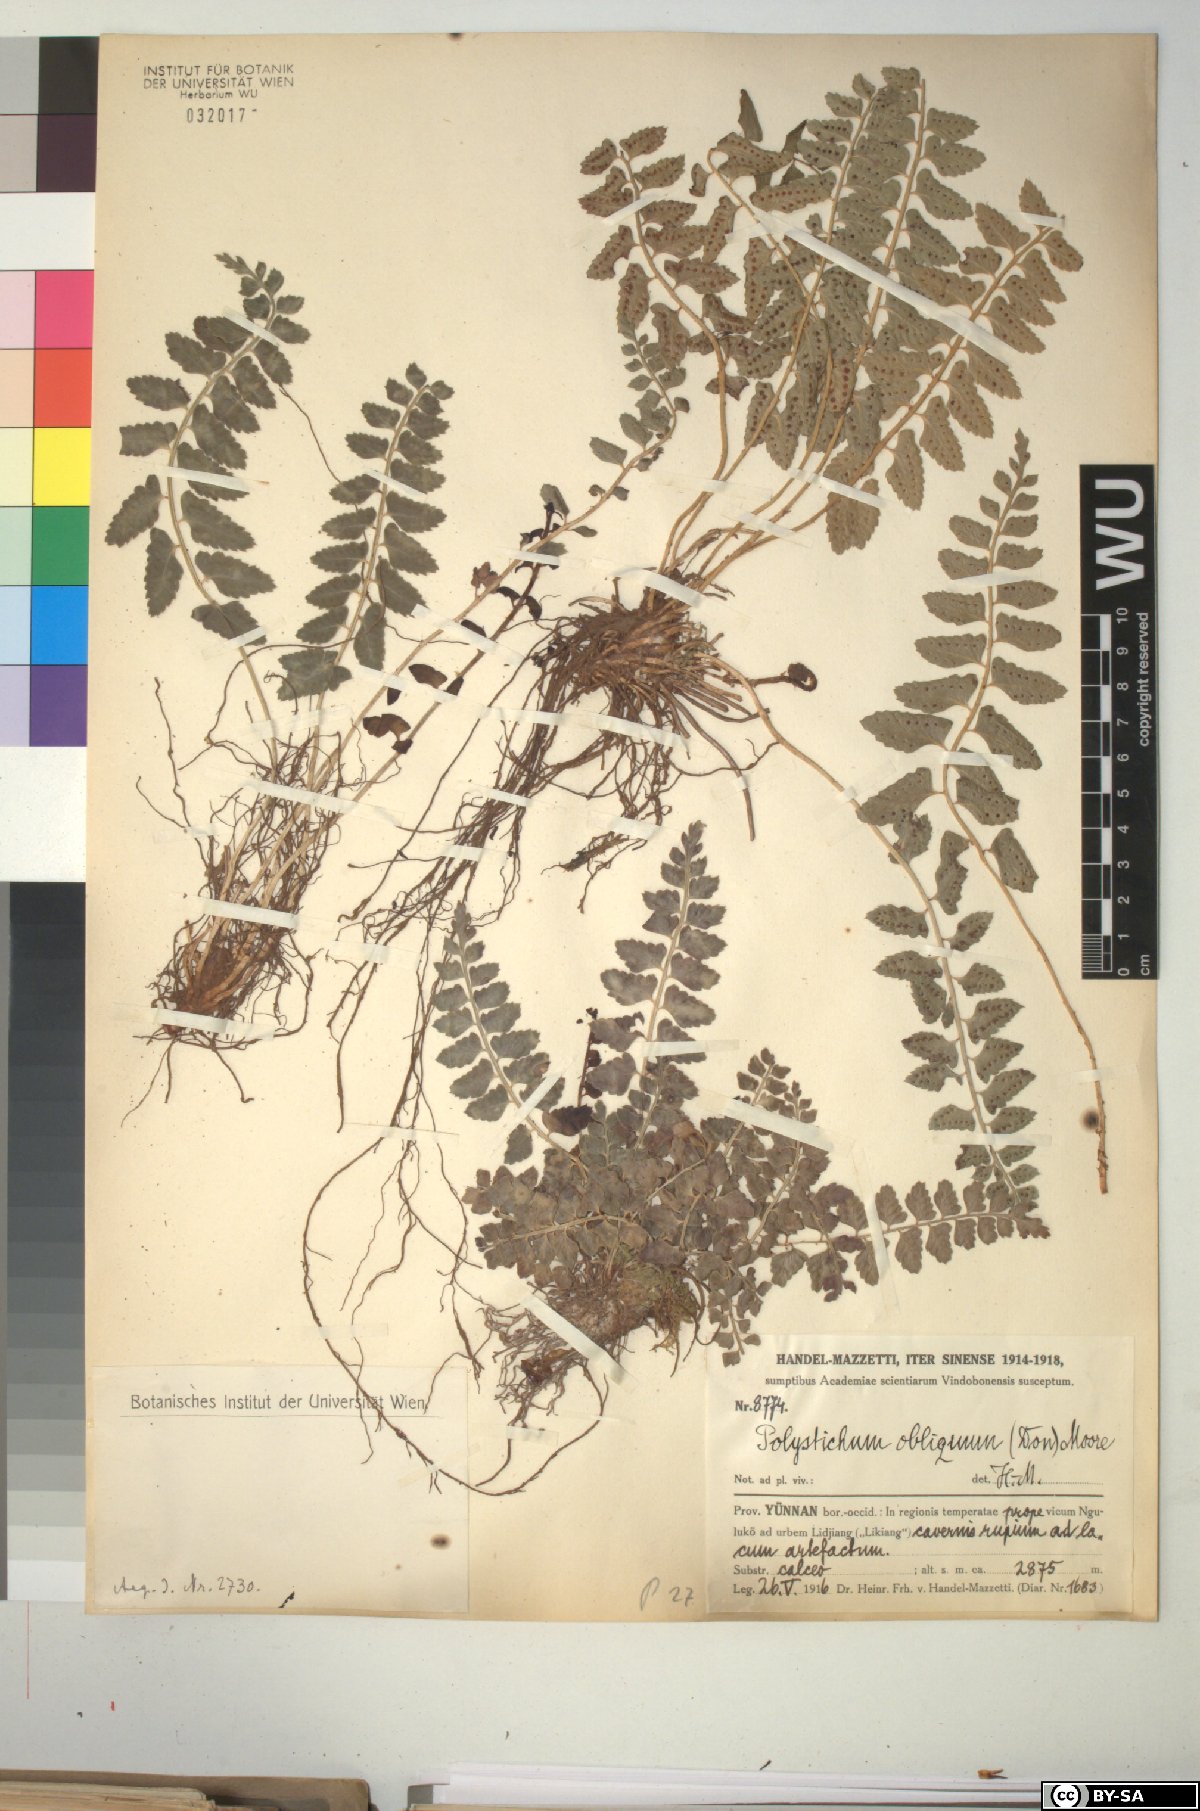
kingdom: Plantae
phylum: Tracheophyta
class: Polypodiopsida
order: Polypodiales
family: Dryopteridaceae
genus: Polystichum
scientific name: Polystichum obliquum
